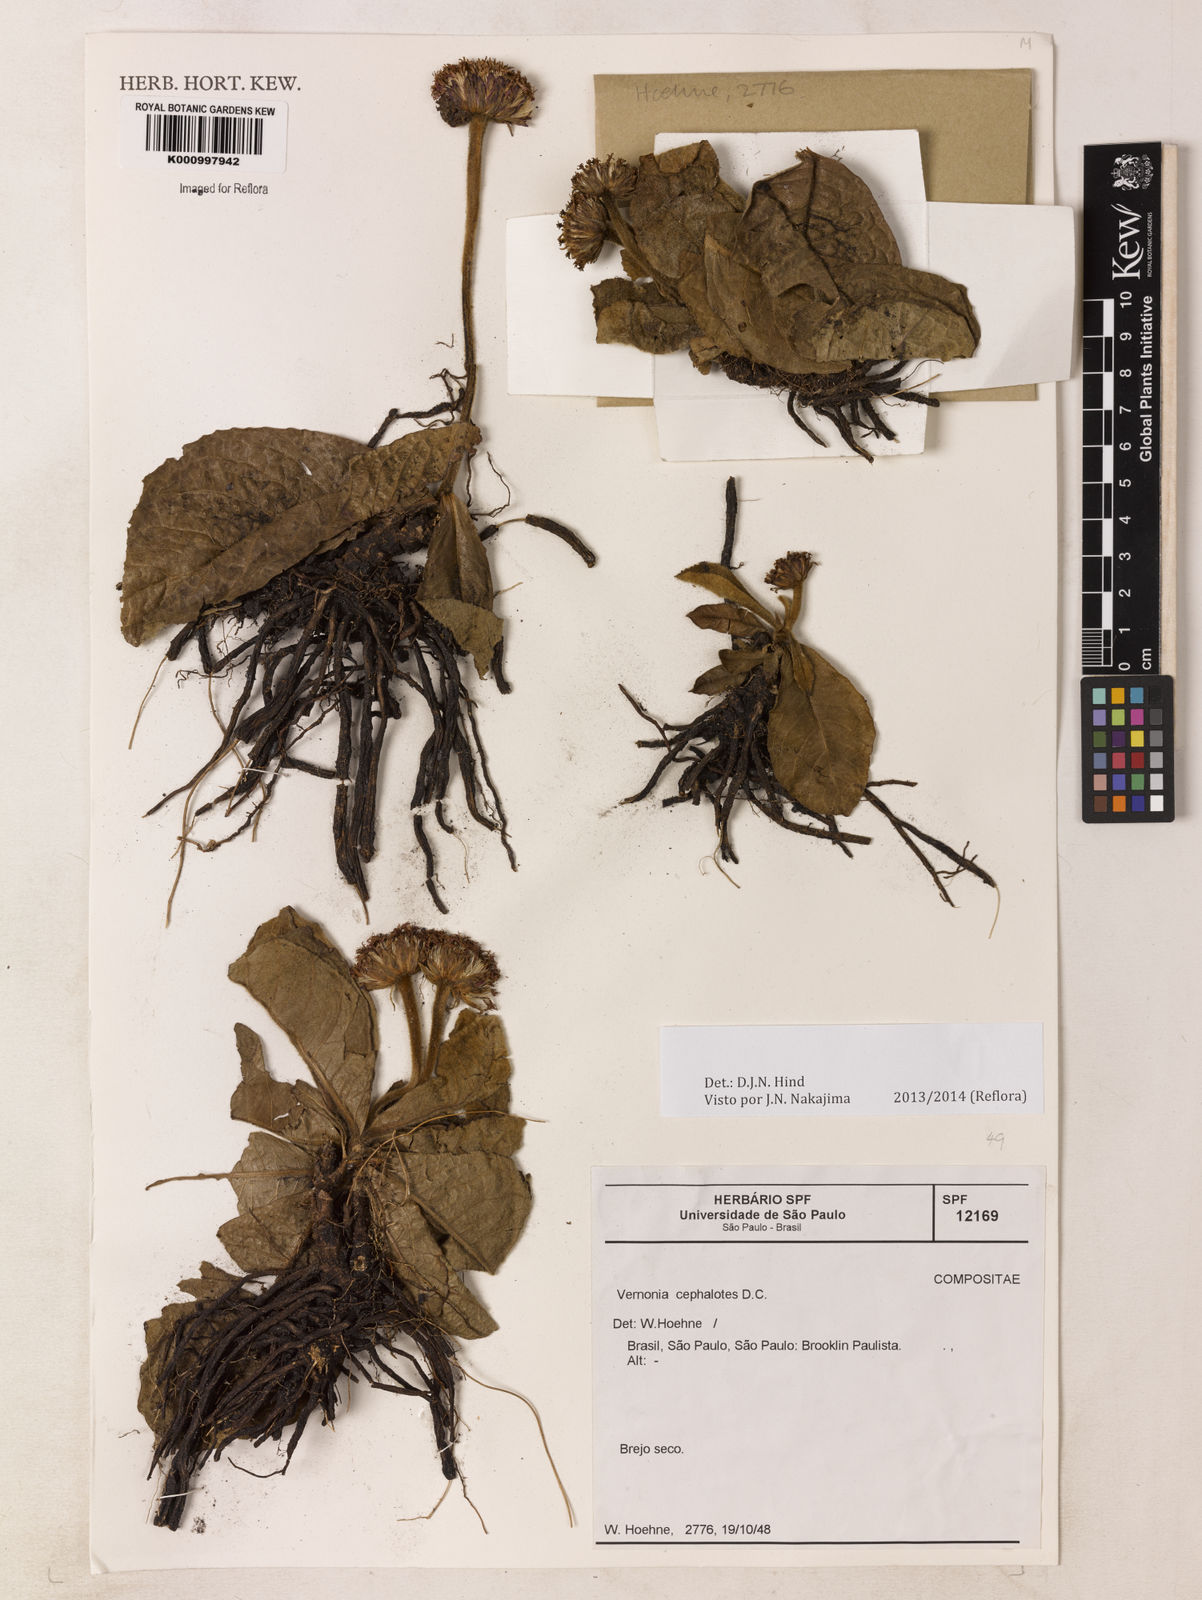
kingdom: Plantae
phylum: Tracheophyta
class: Magnoliopsida
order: Asterales
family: Asteraceae
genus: Lessingianthus
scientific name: Lessingianthus cephalotes
